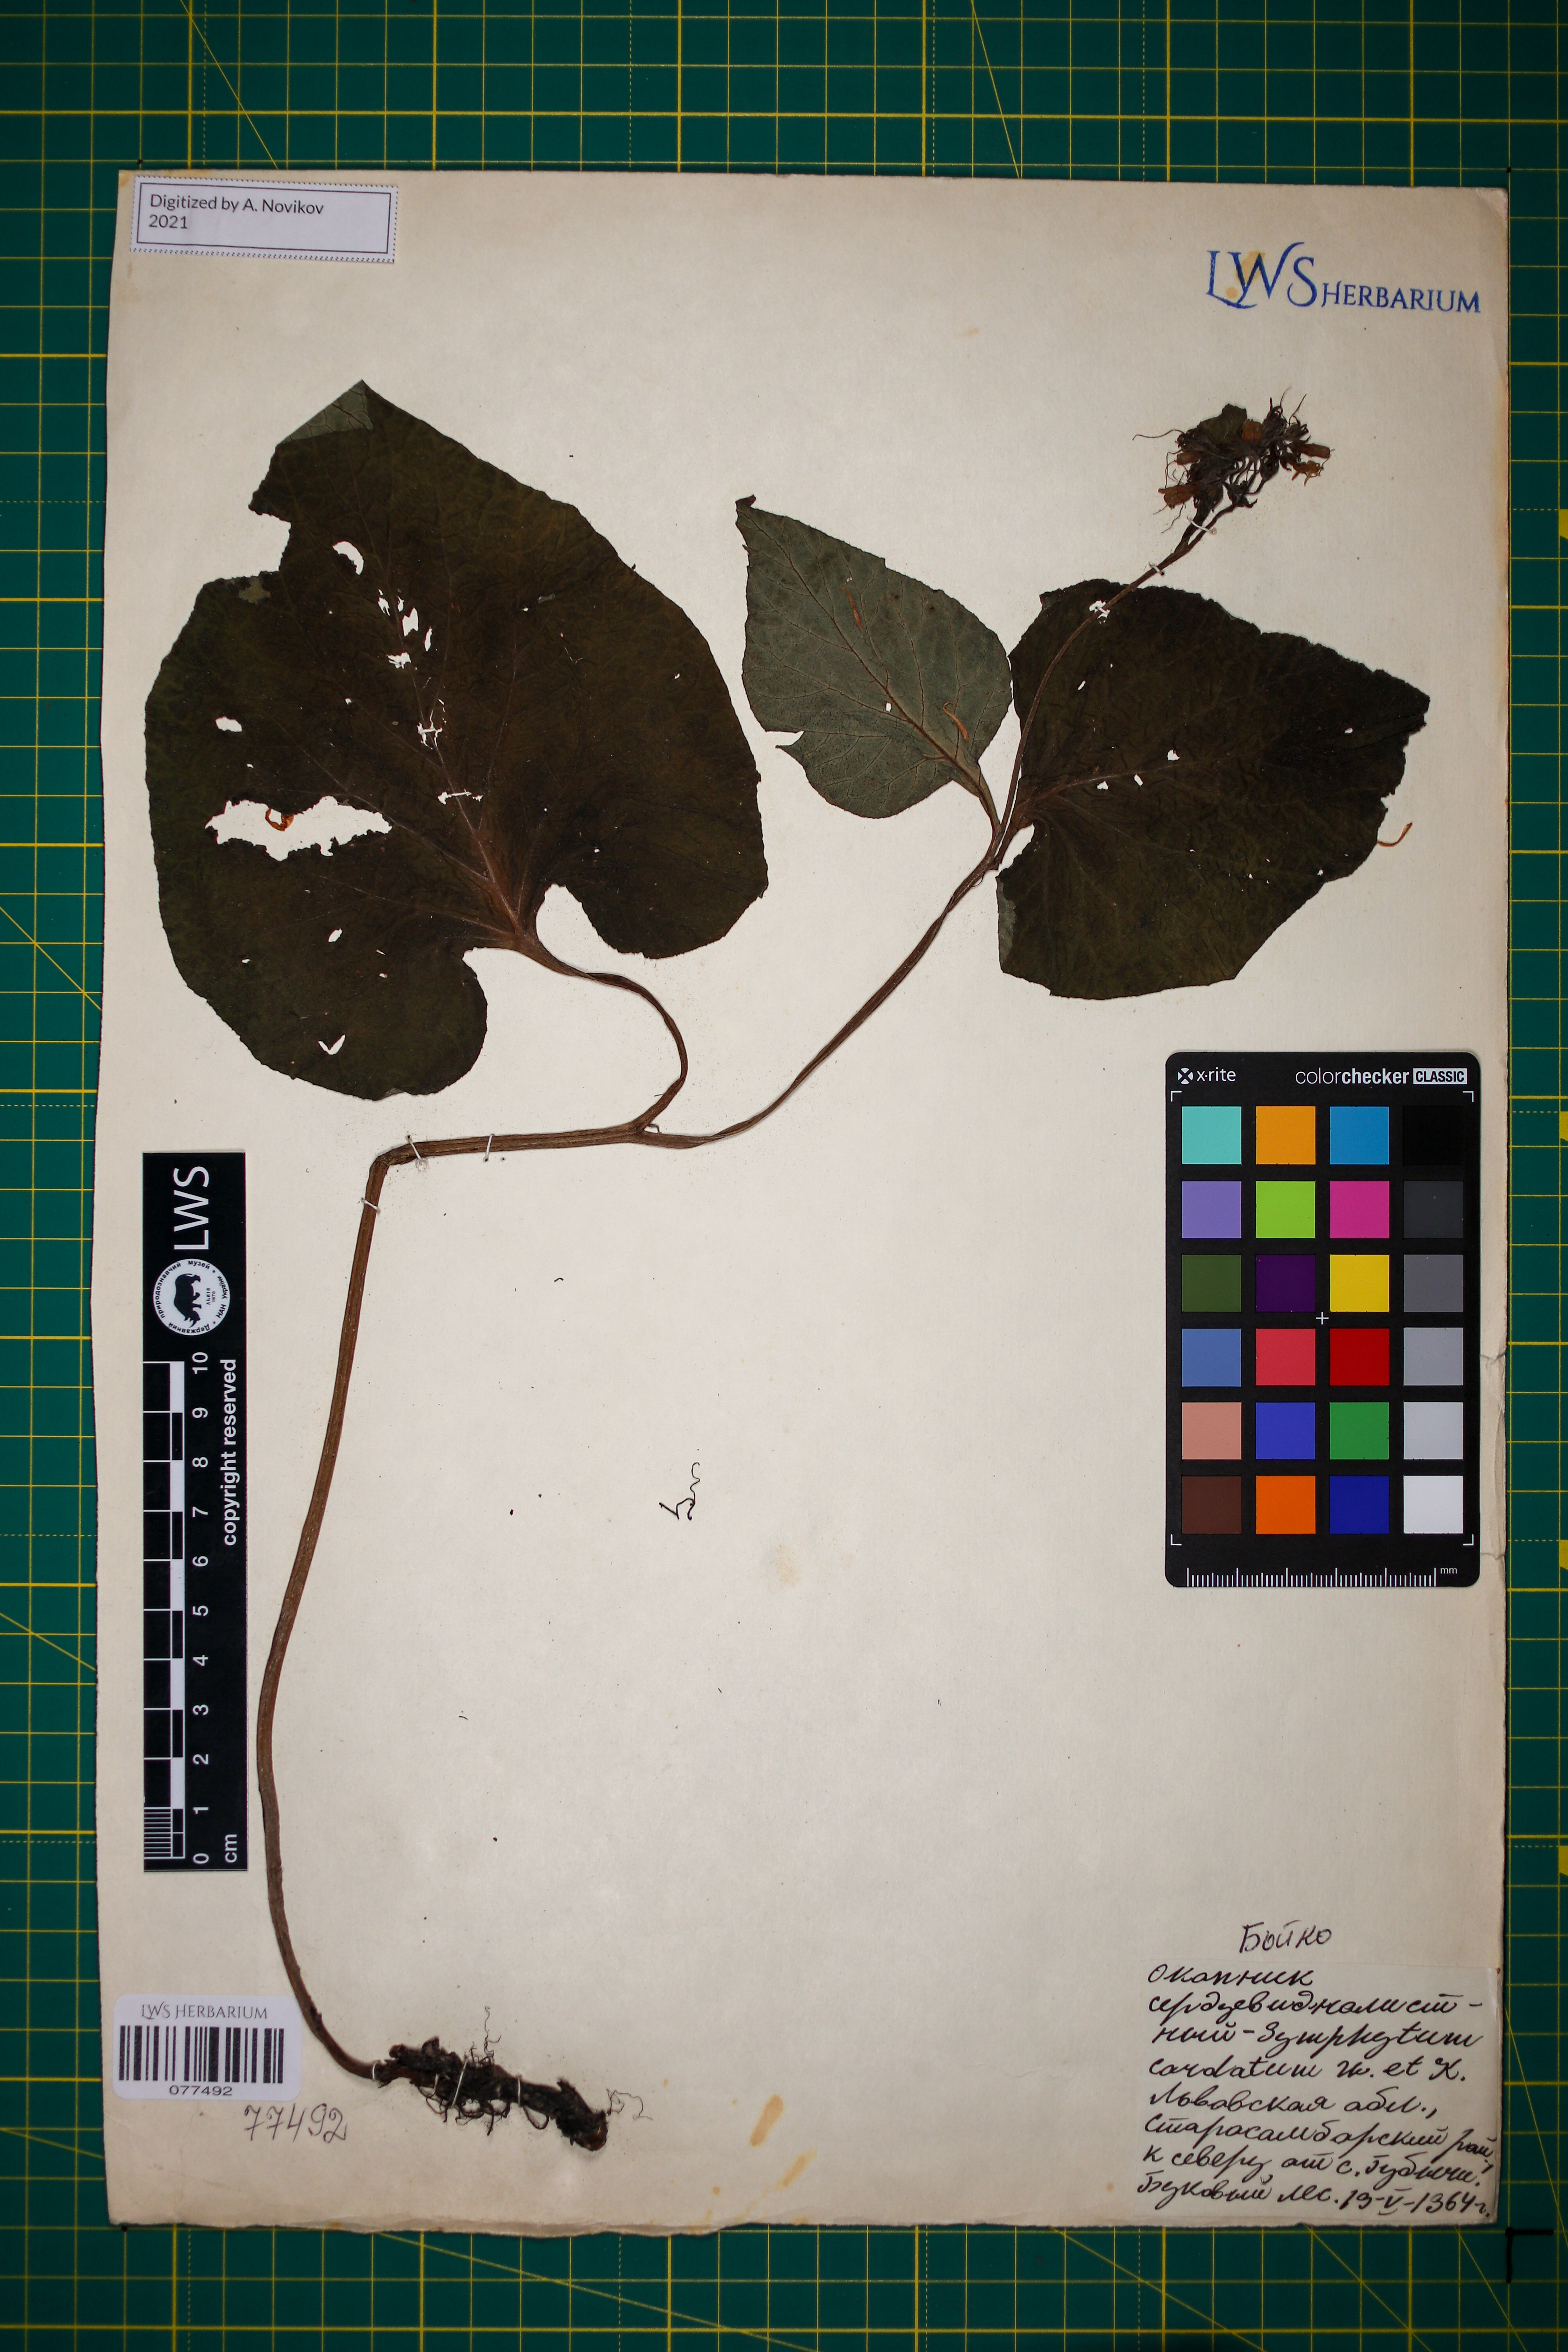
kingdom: Plantae
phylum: Tracheophyta
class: Magnoliopsida
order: Boraginales
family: Boraginaceae
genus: Symphytum
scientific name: Symphytum cordatum
